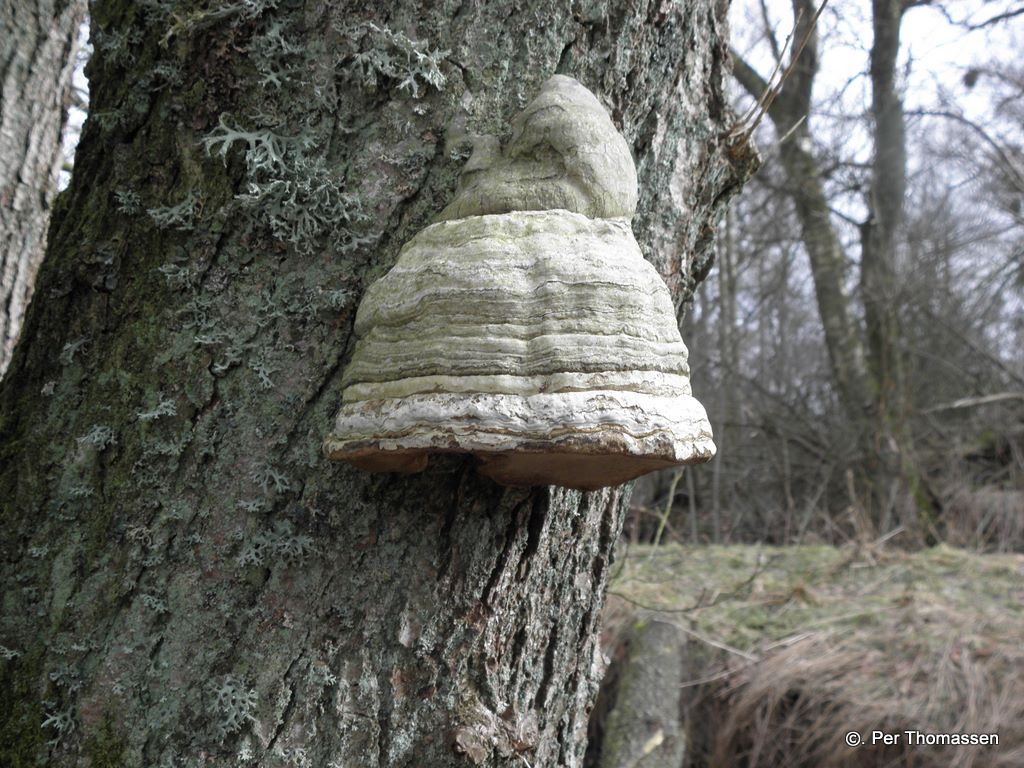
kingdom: Fungi
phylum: Basidiomycota
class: Agaricomycetes
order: Polyporales
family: Polyporaceae
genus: Fomes
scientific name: Fomes fomentarius
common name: tøndersvamp
